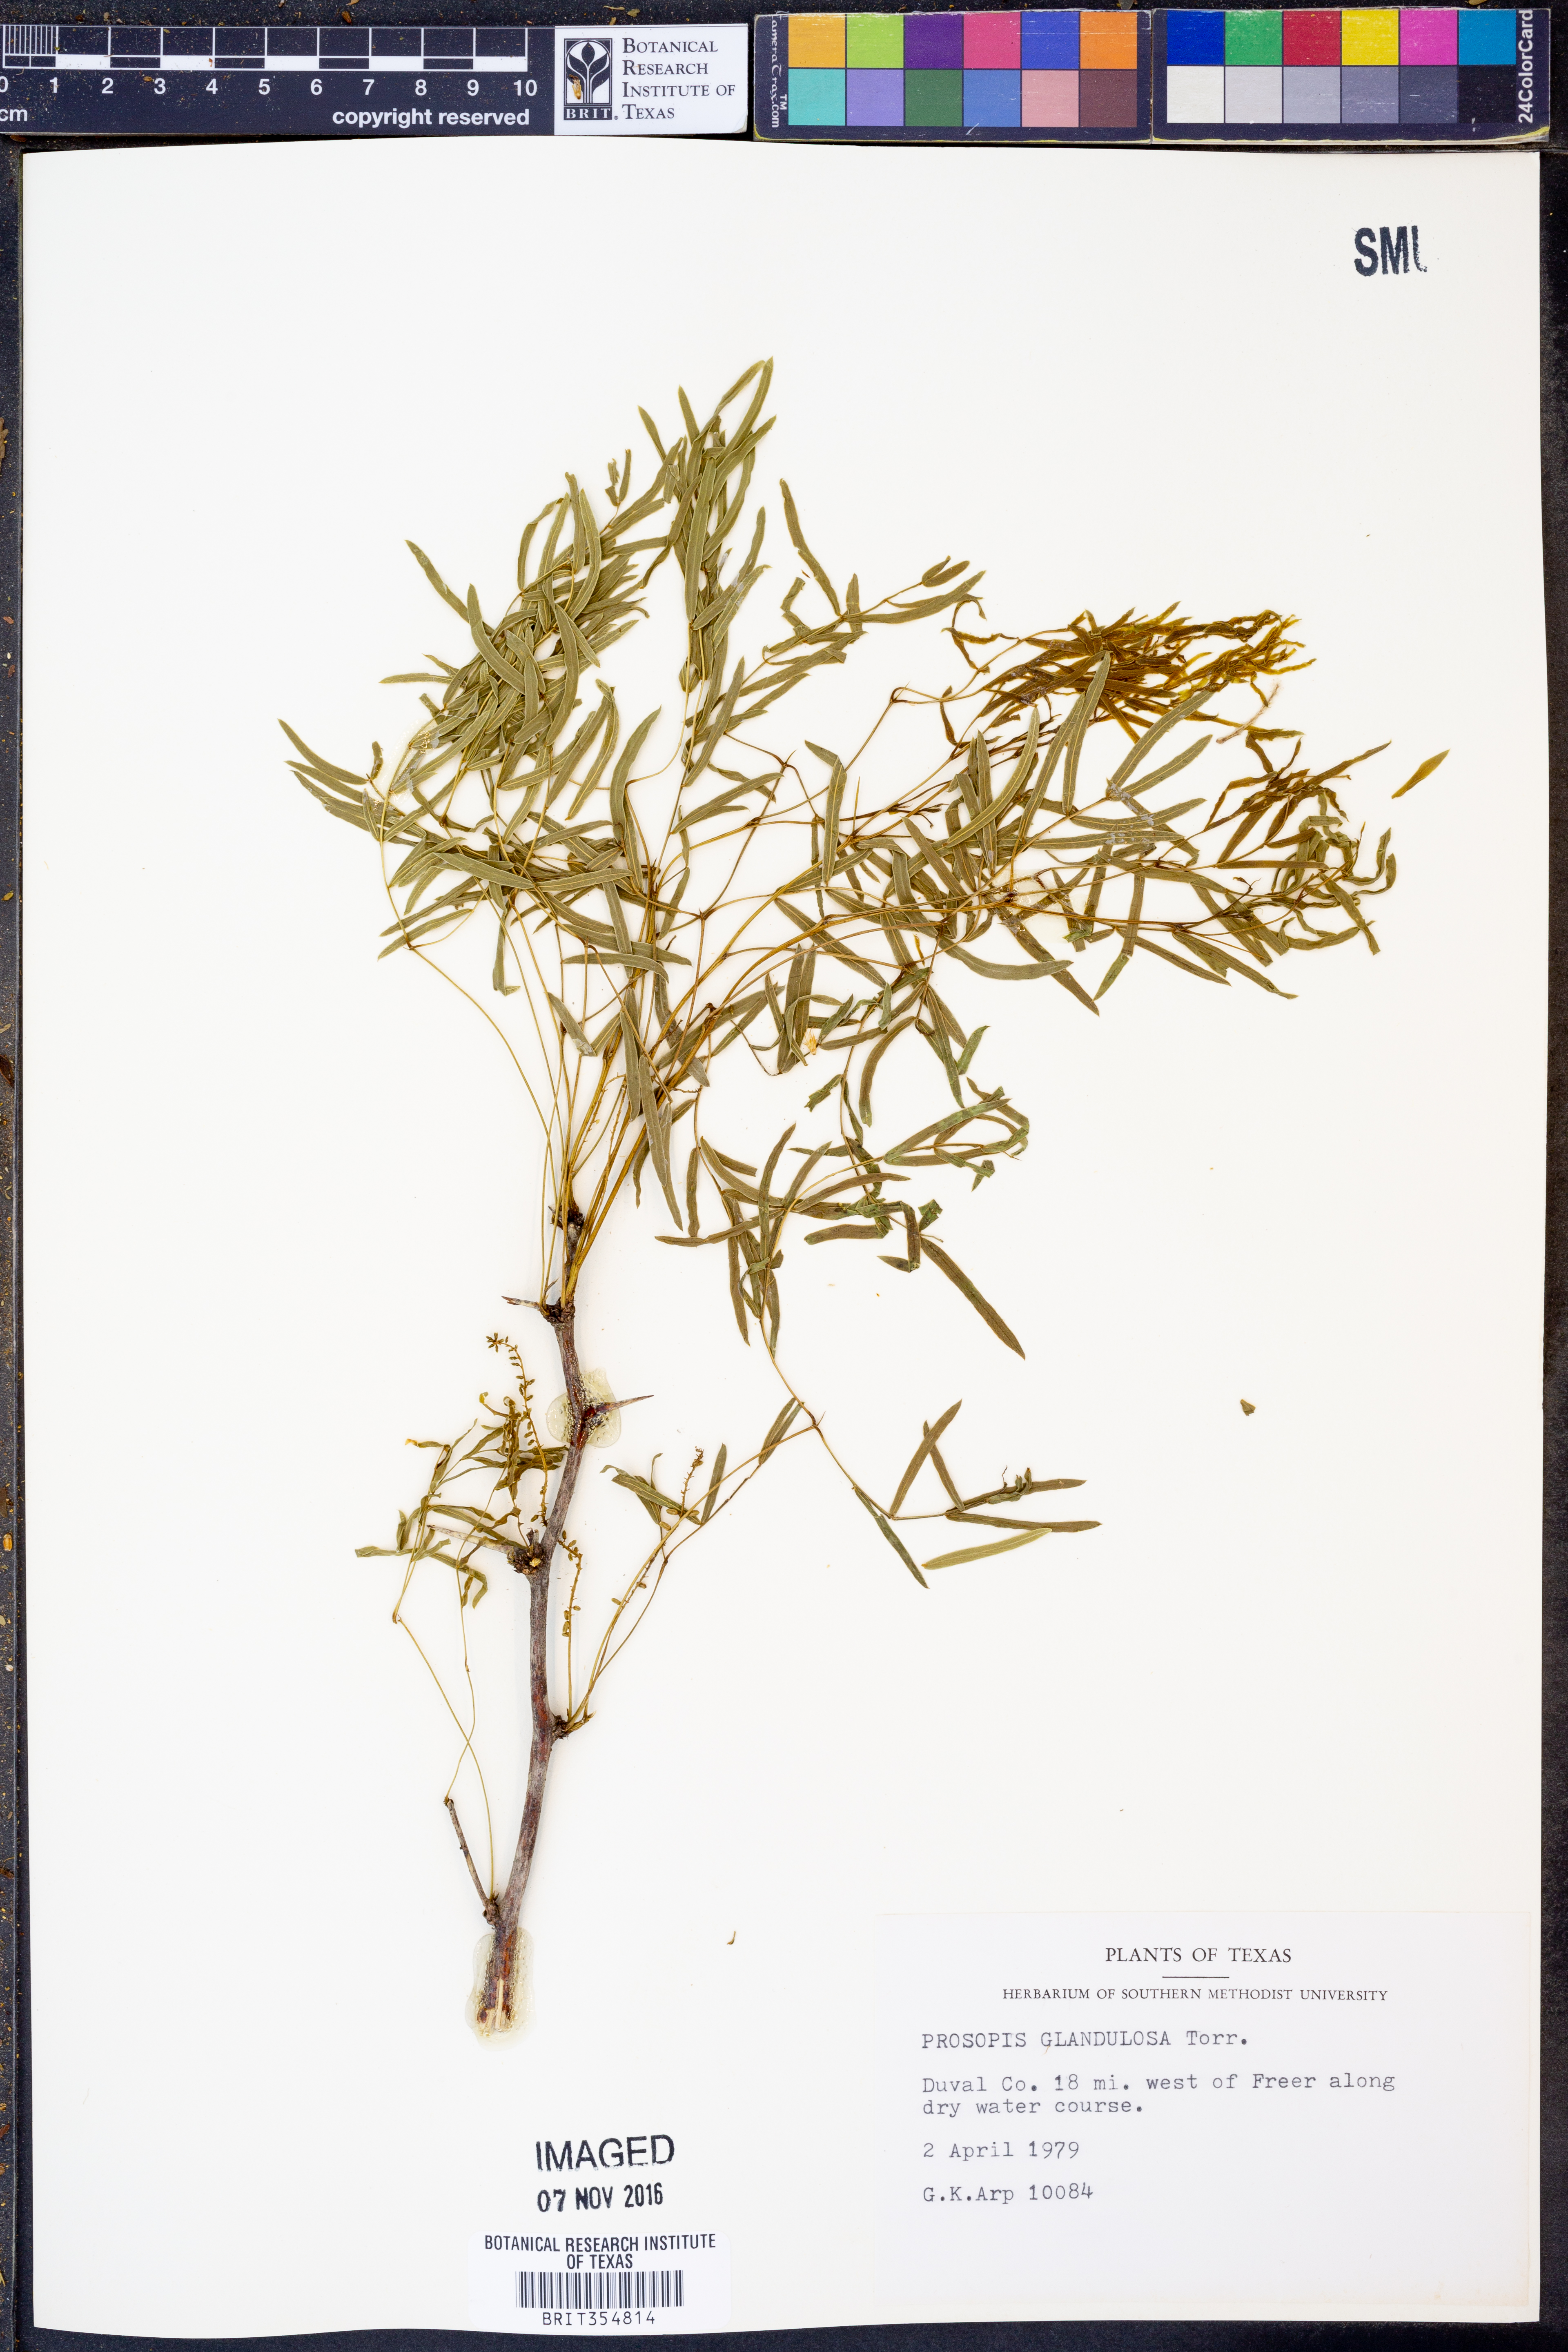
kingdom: Plantae
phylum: Tracheophyta
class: Magnoliopsida
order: Fabales
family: Fabaceae
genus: Prosopis
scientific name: Prosopis glandulosa
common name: Honey mesquite
